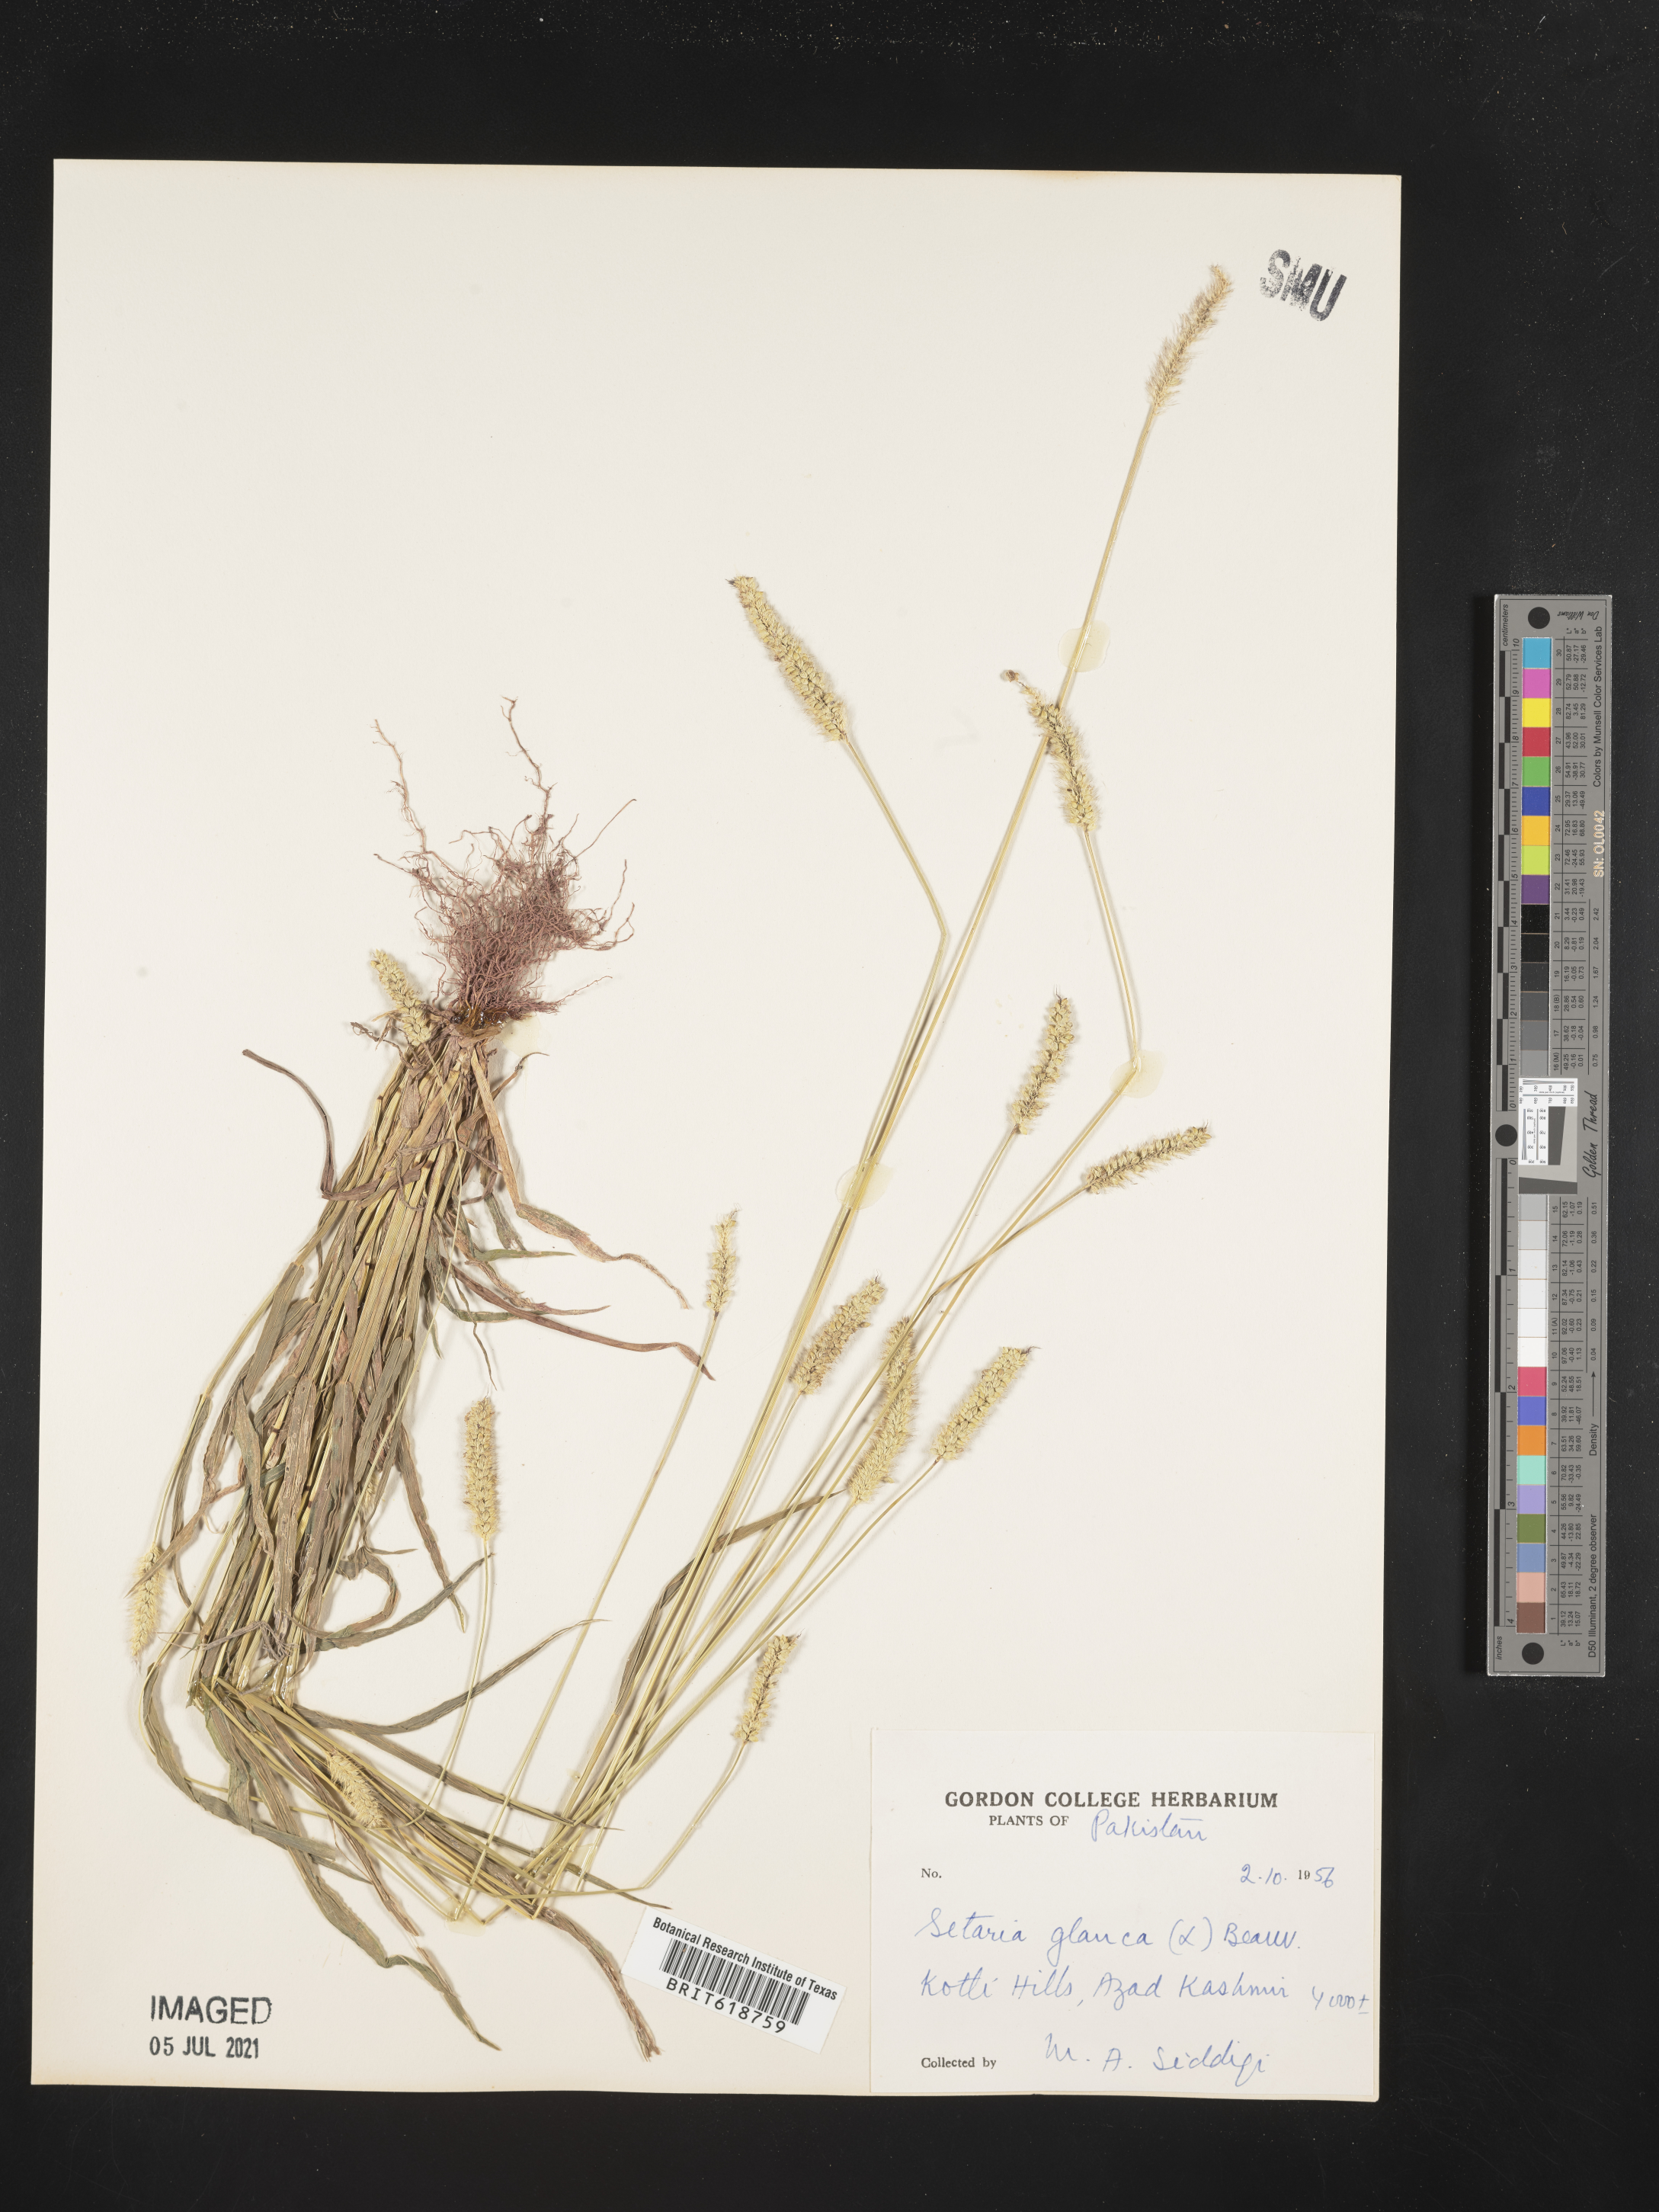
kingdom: Plantae
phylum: Tracheophyta
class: Liliopsida
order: Poales
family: Poaceae
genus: Cenchrus
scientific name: Cenchrus americanus
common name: Pearl millet
